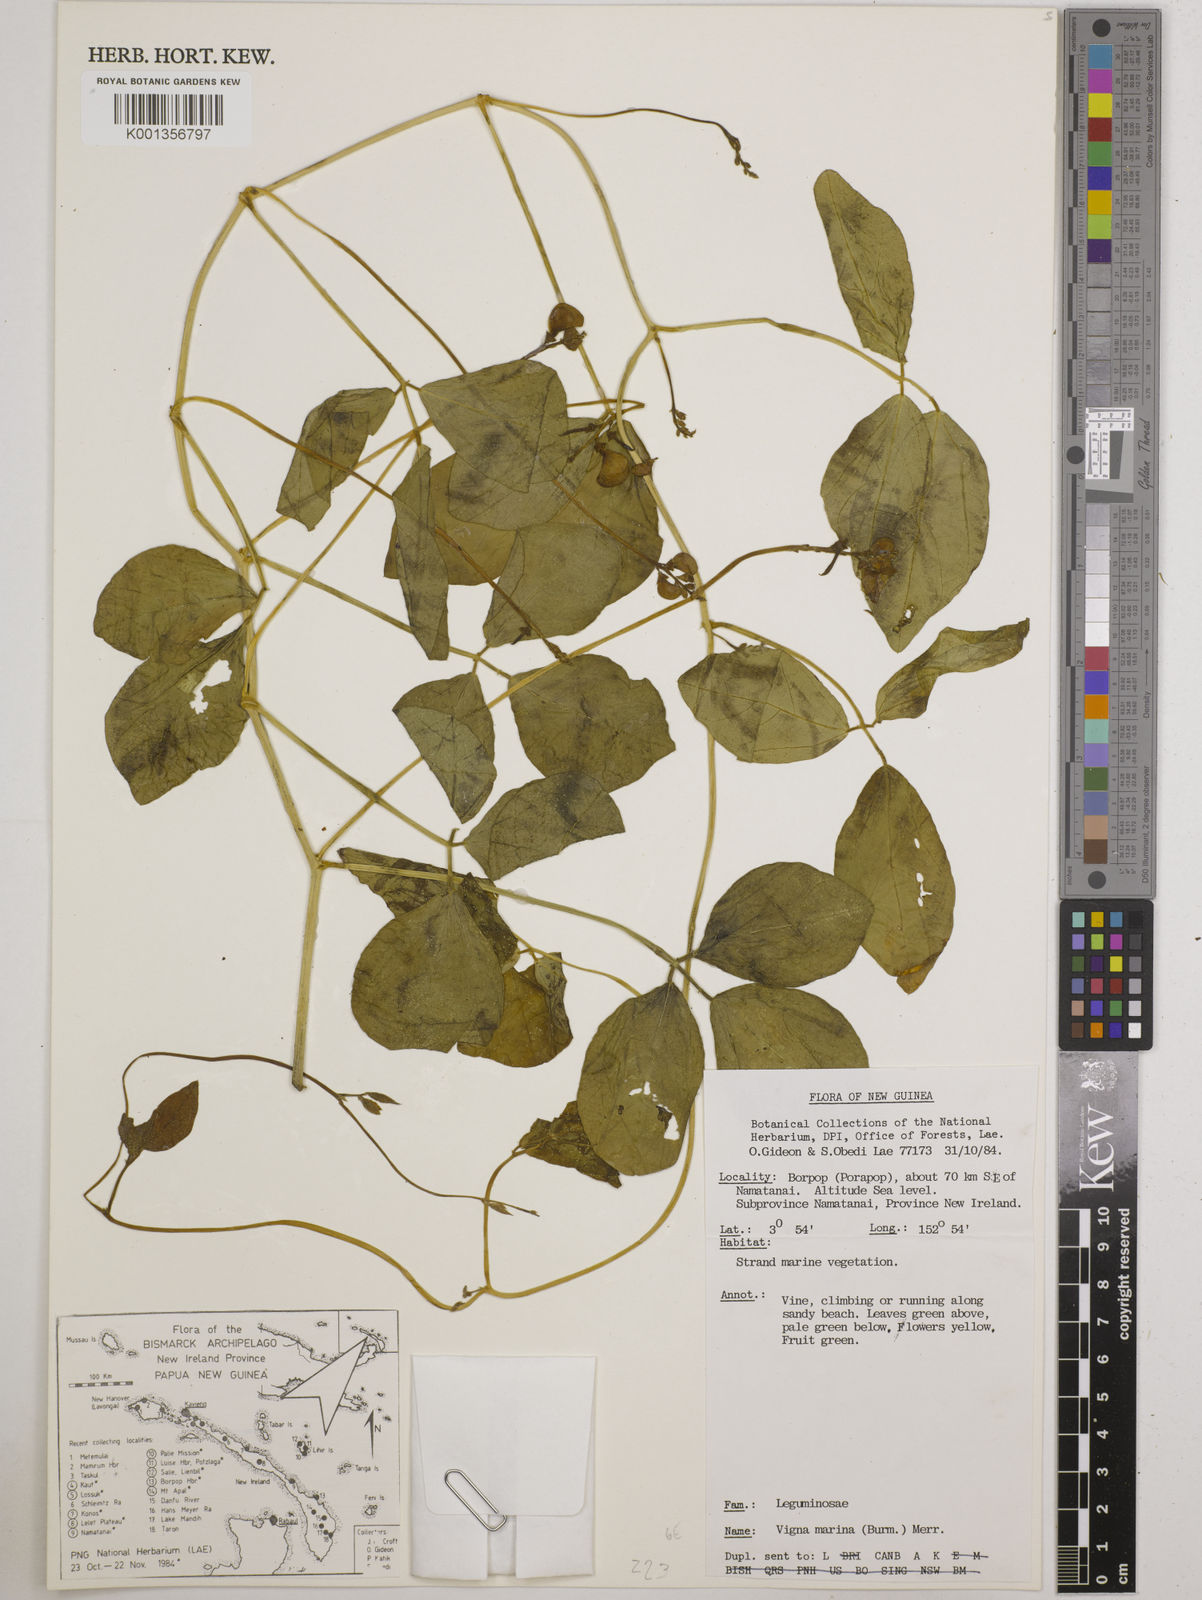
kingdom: Plantae
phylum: Tracheophyta
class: Magnoliopsida
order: Fabales
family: Fabaceae
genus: Vigna
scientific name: Vigna marina
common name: Dune-bean
